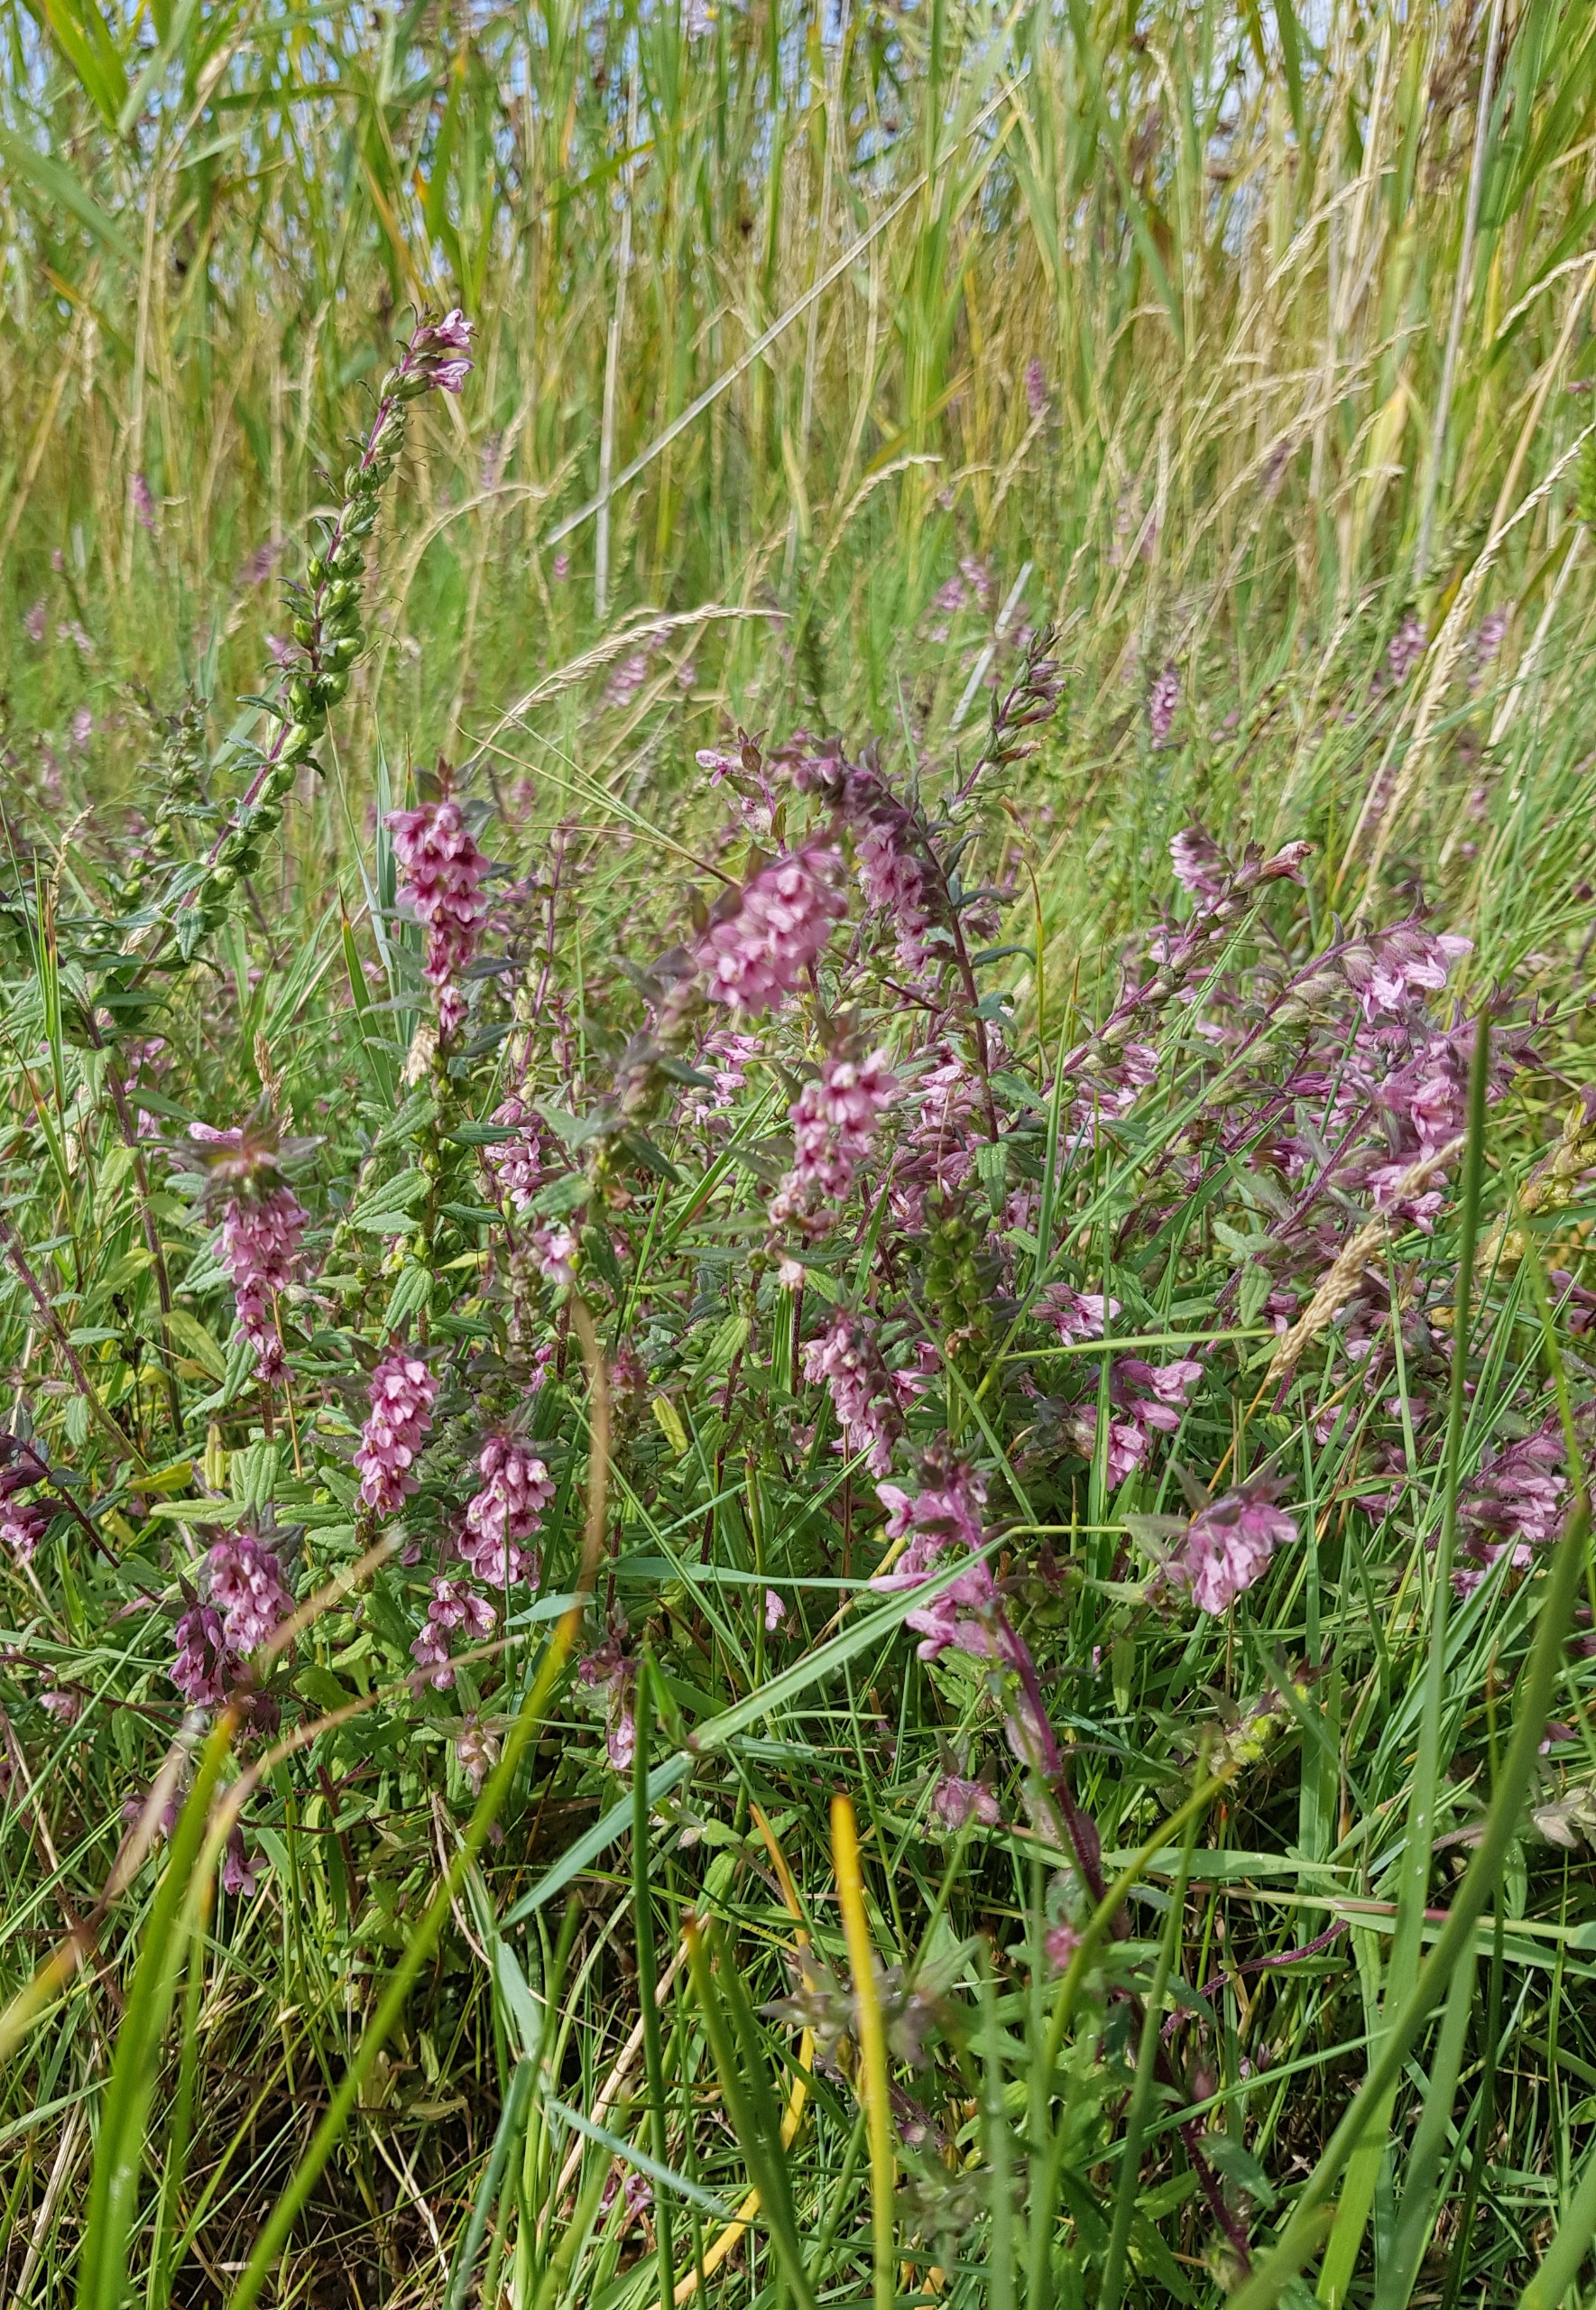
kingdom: Plantae
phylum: Tracheophyta
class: Magnoliopsida
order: Lamiales
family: Orobanchaceae
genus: Odontites
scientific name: Odontites
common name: Rødtopslægten
